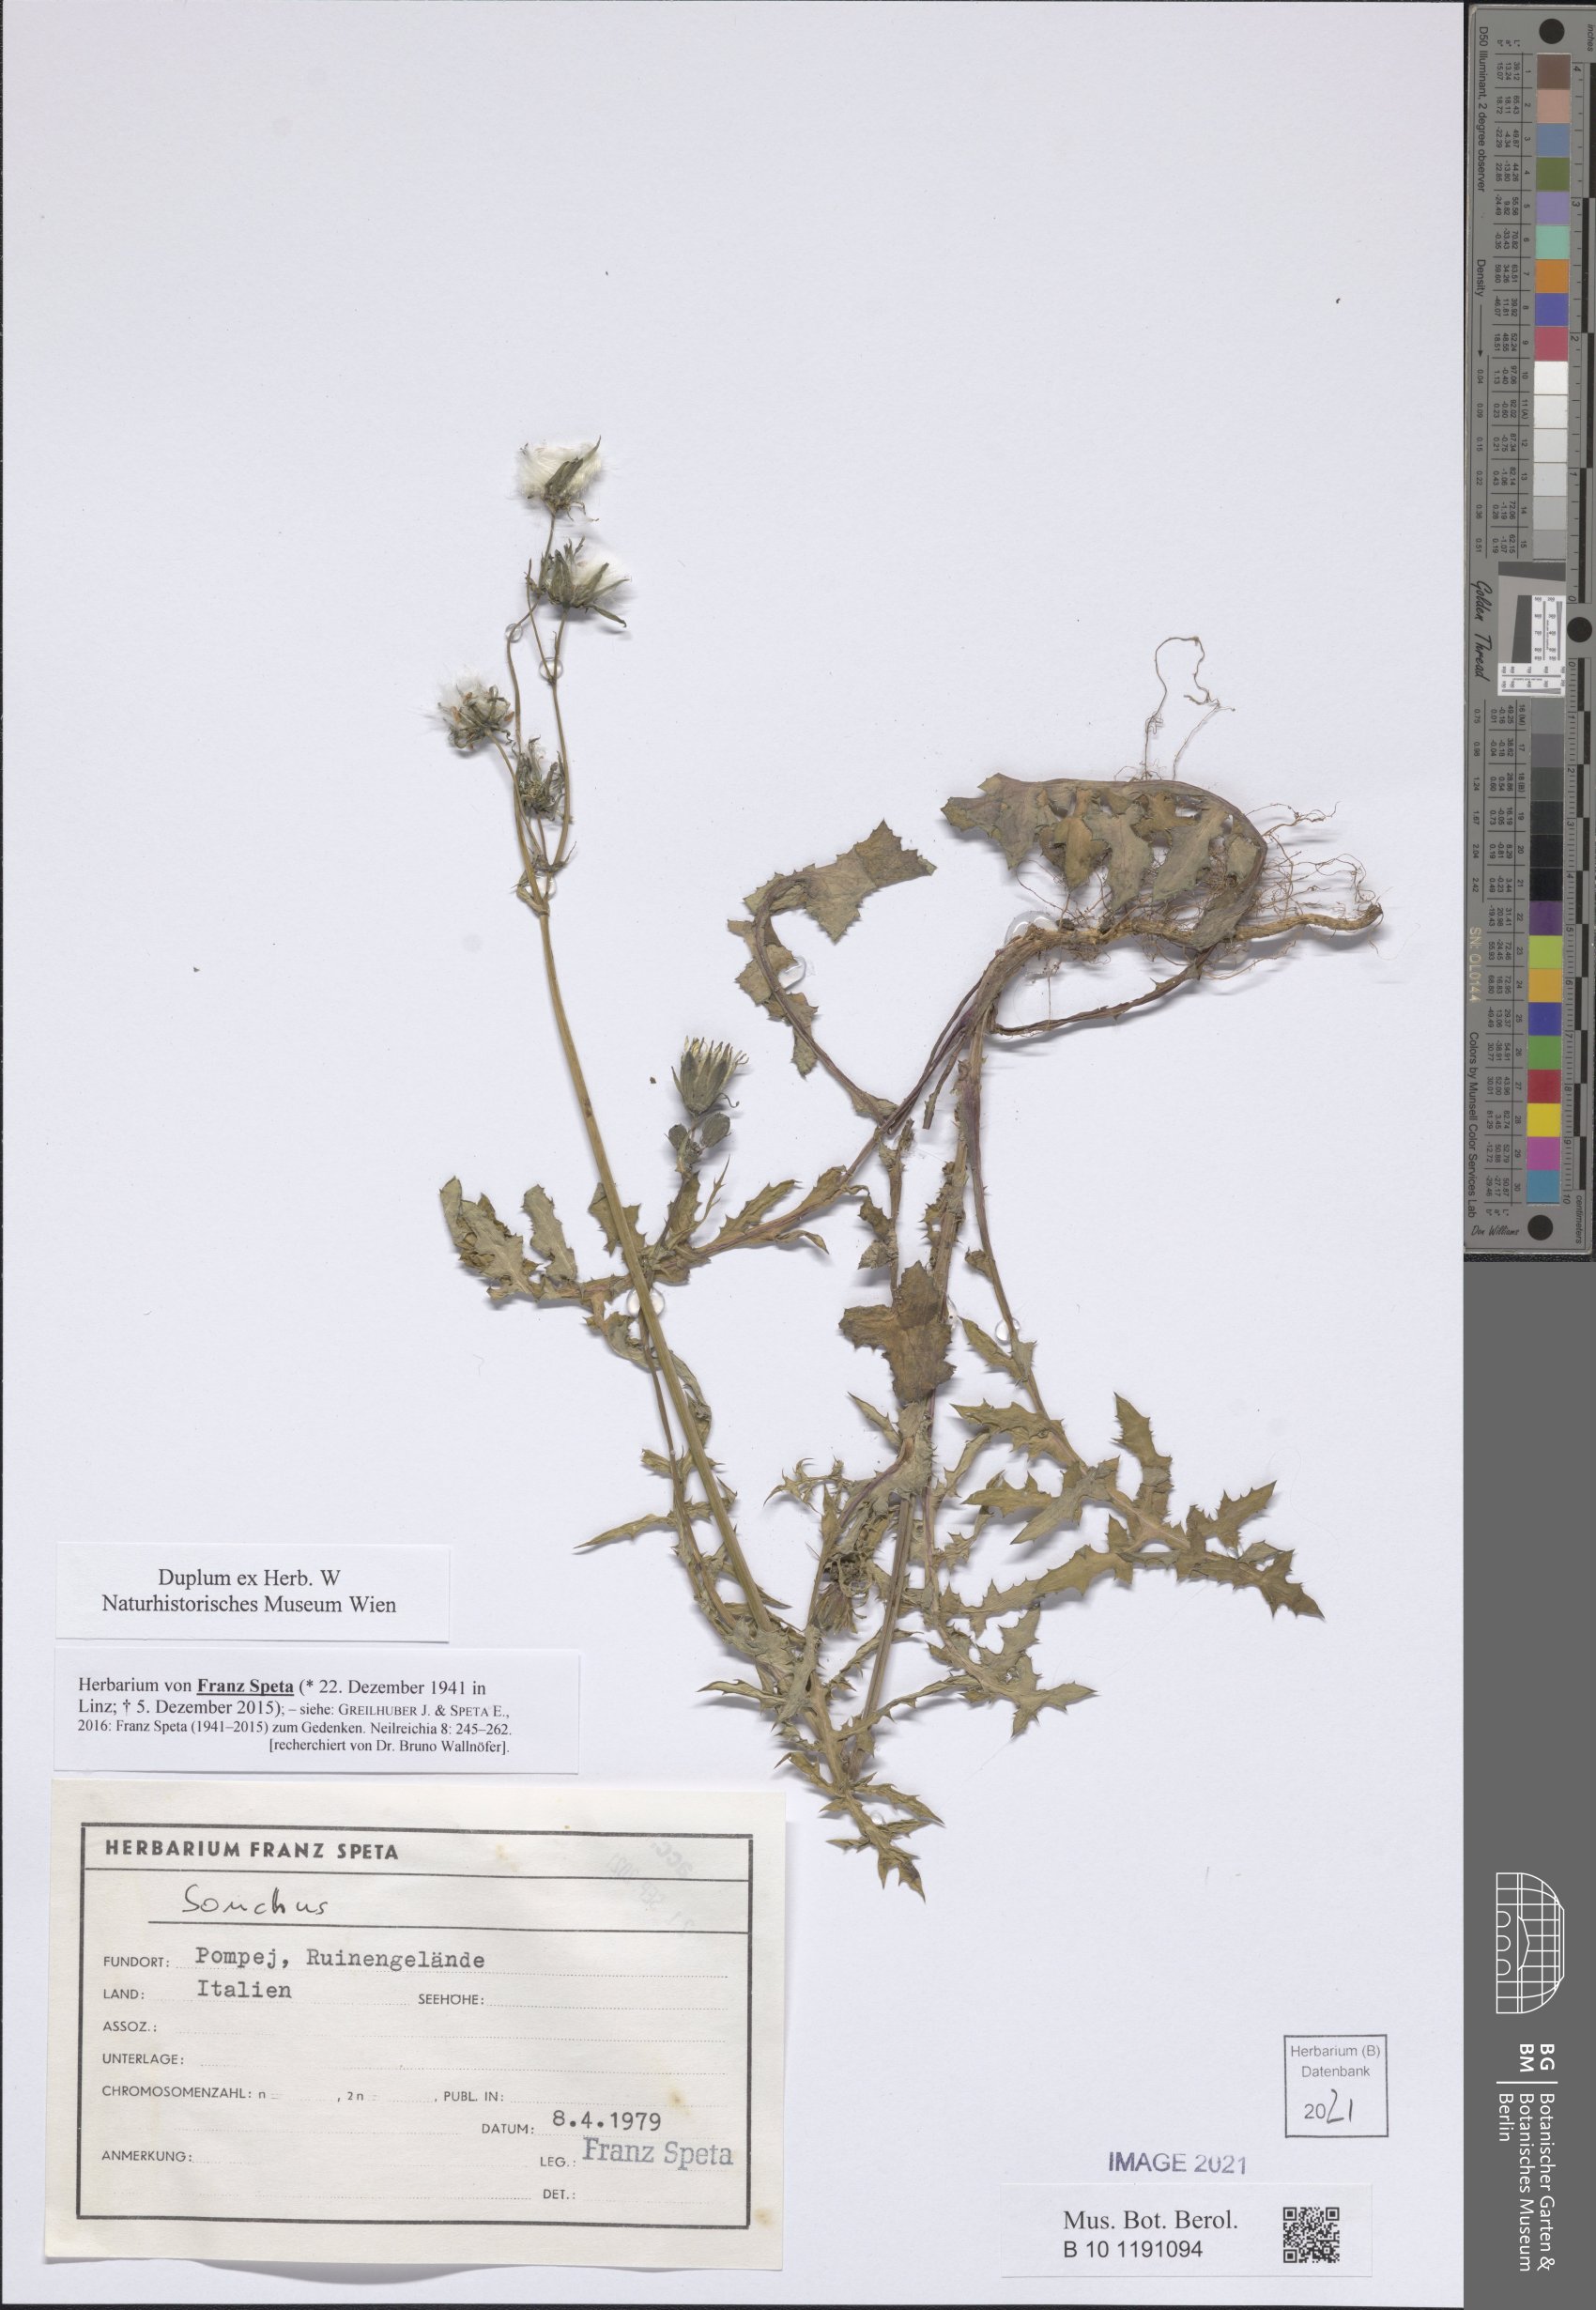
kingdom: Plantae
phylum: Tracheophyta
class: Magnoliopsida
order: Asterales
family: Asteraceae
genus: Sonchus
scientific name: Sonchus
